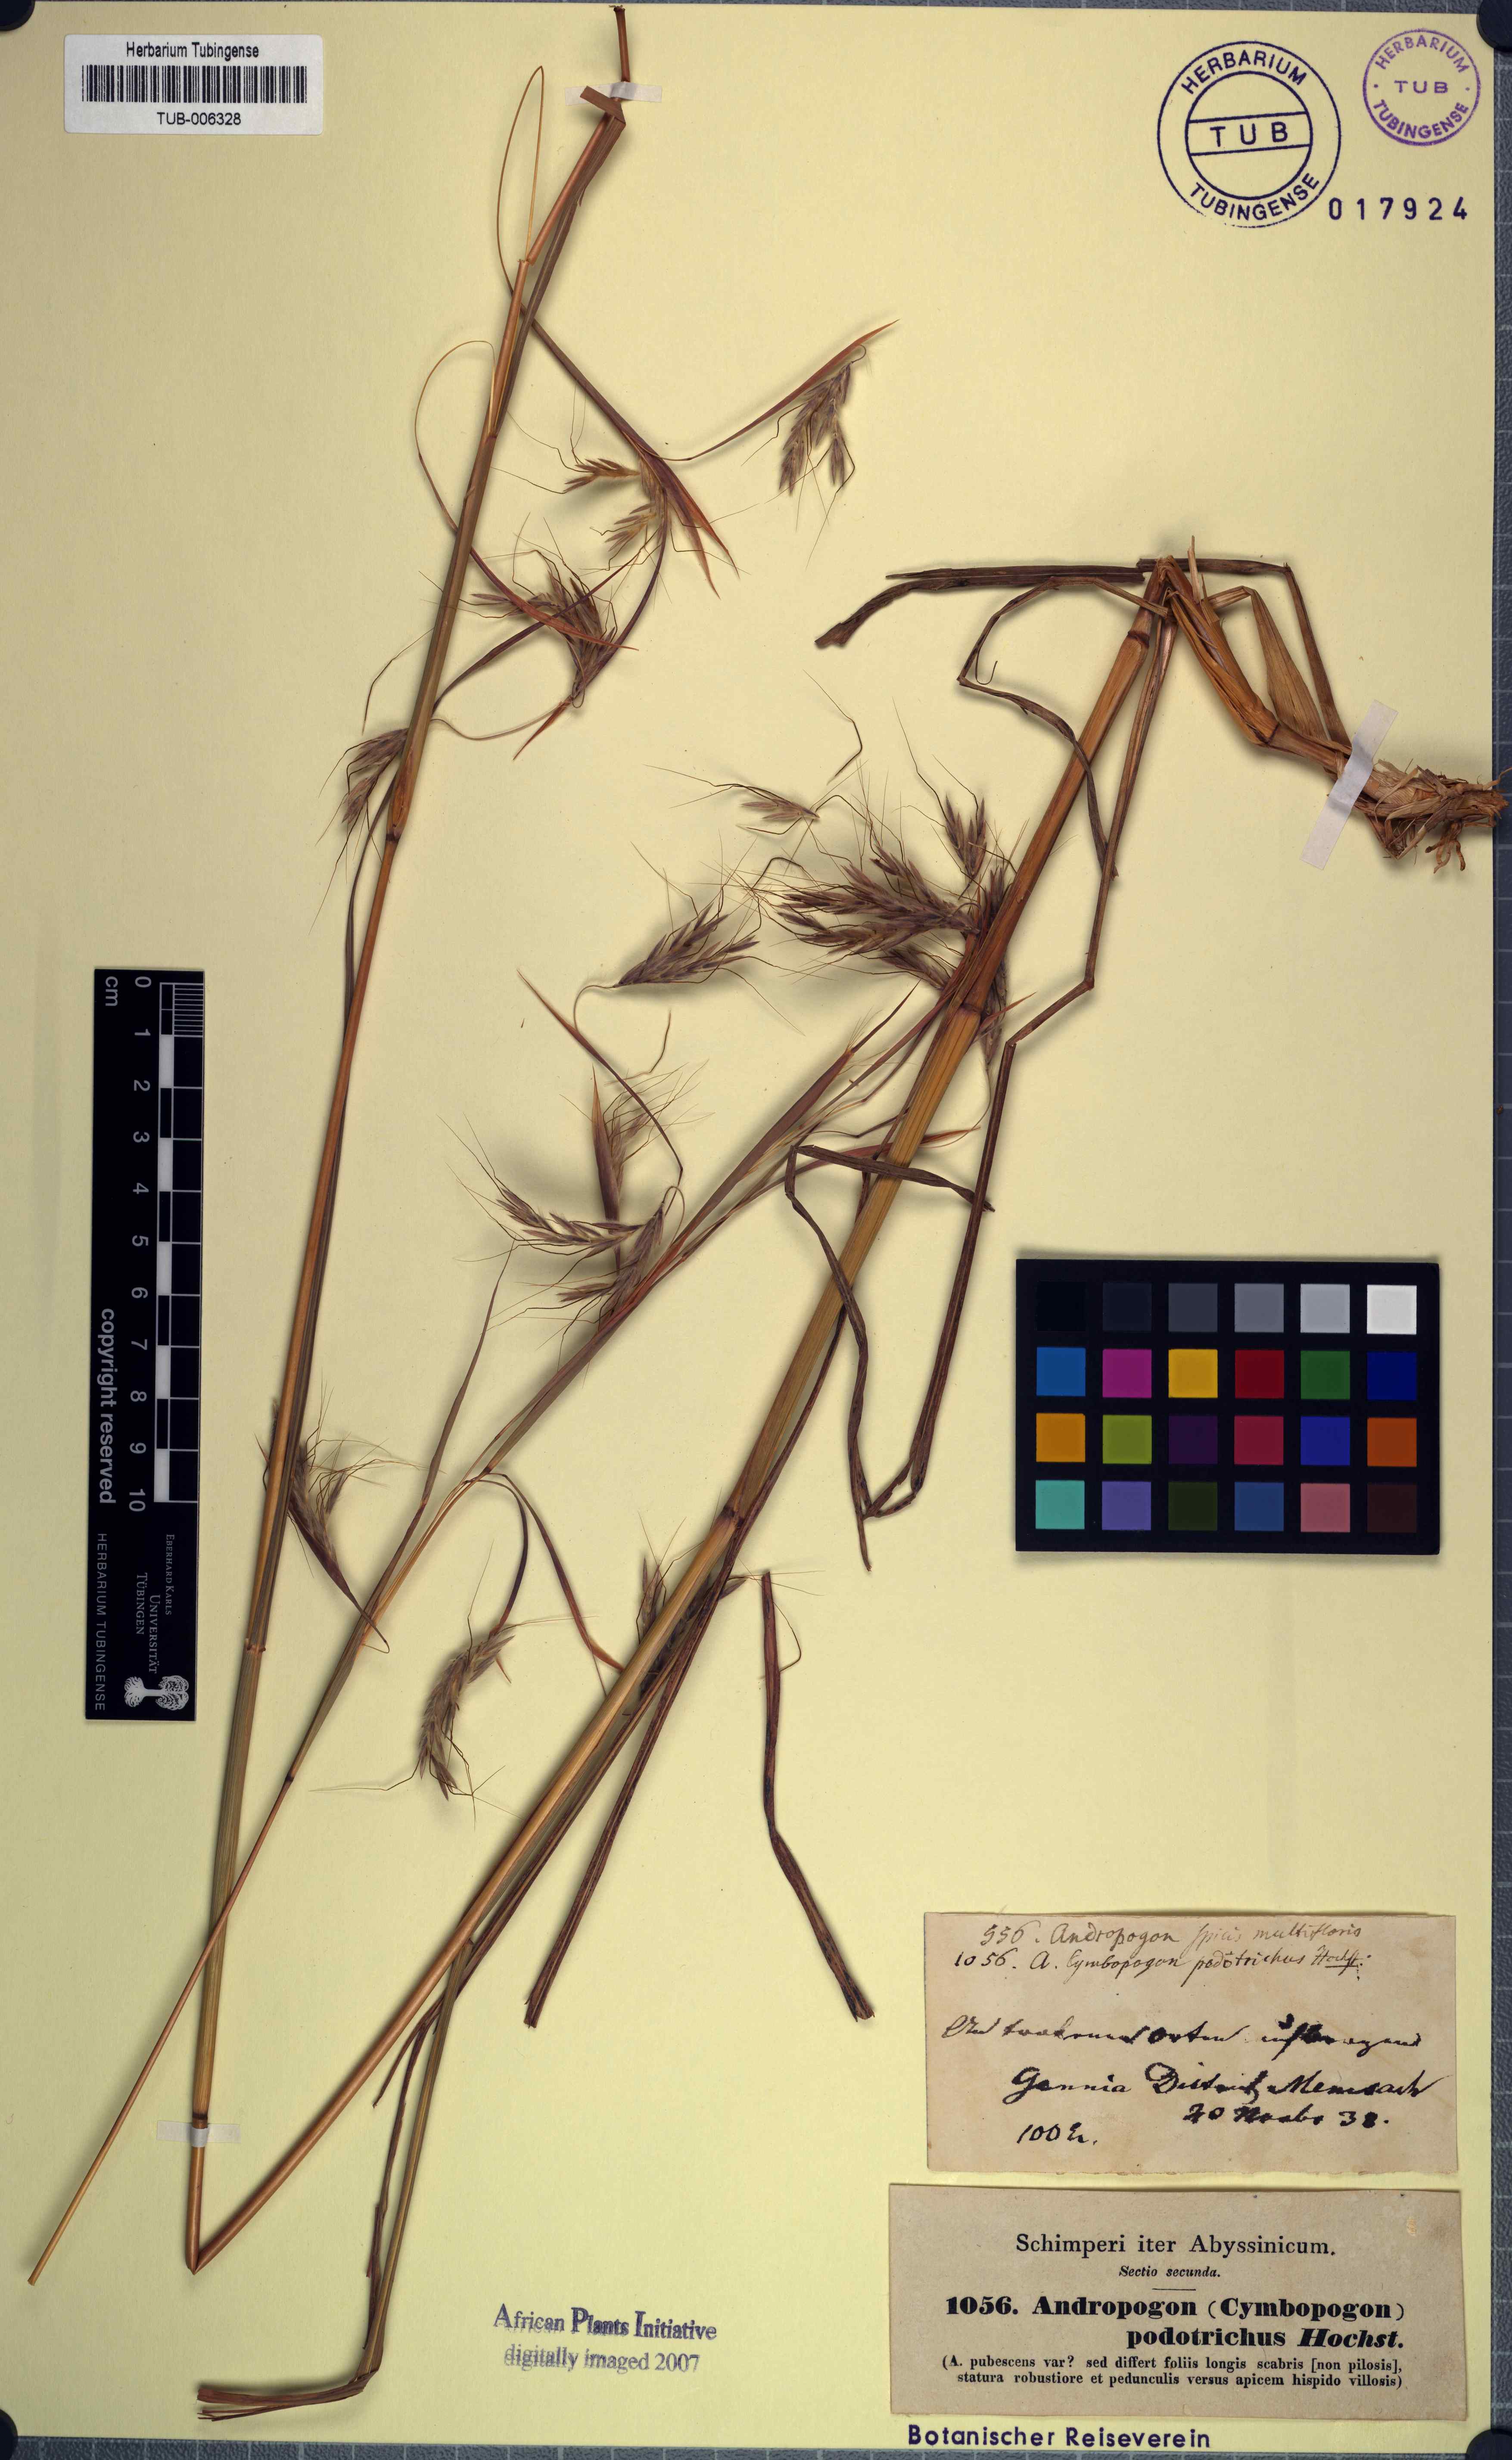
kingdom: Plantae
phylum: Tracheophyta
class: Liliopsida
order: Poales
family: Poaceae
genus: Heteropogon
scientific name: Heteropogon contortus
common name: Tanglehead
